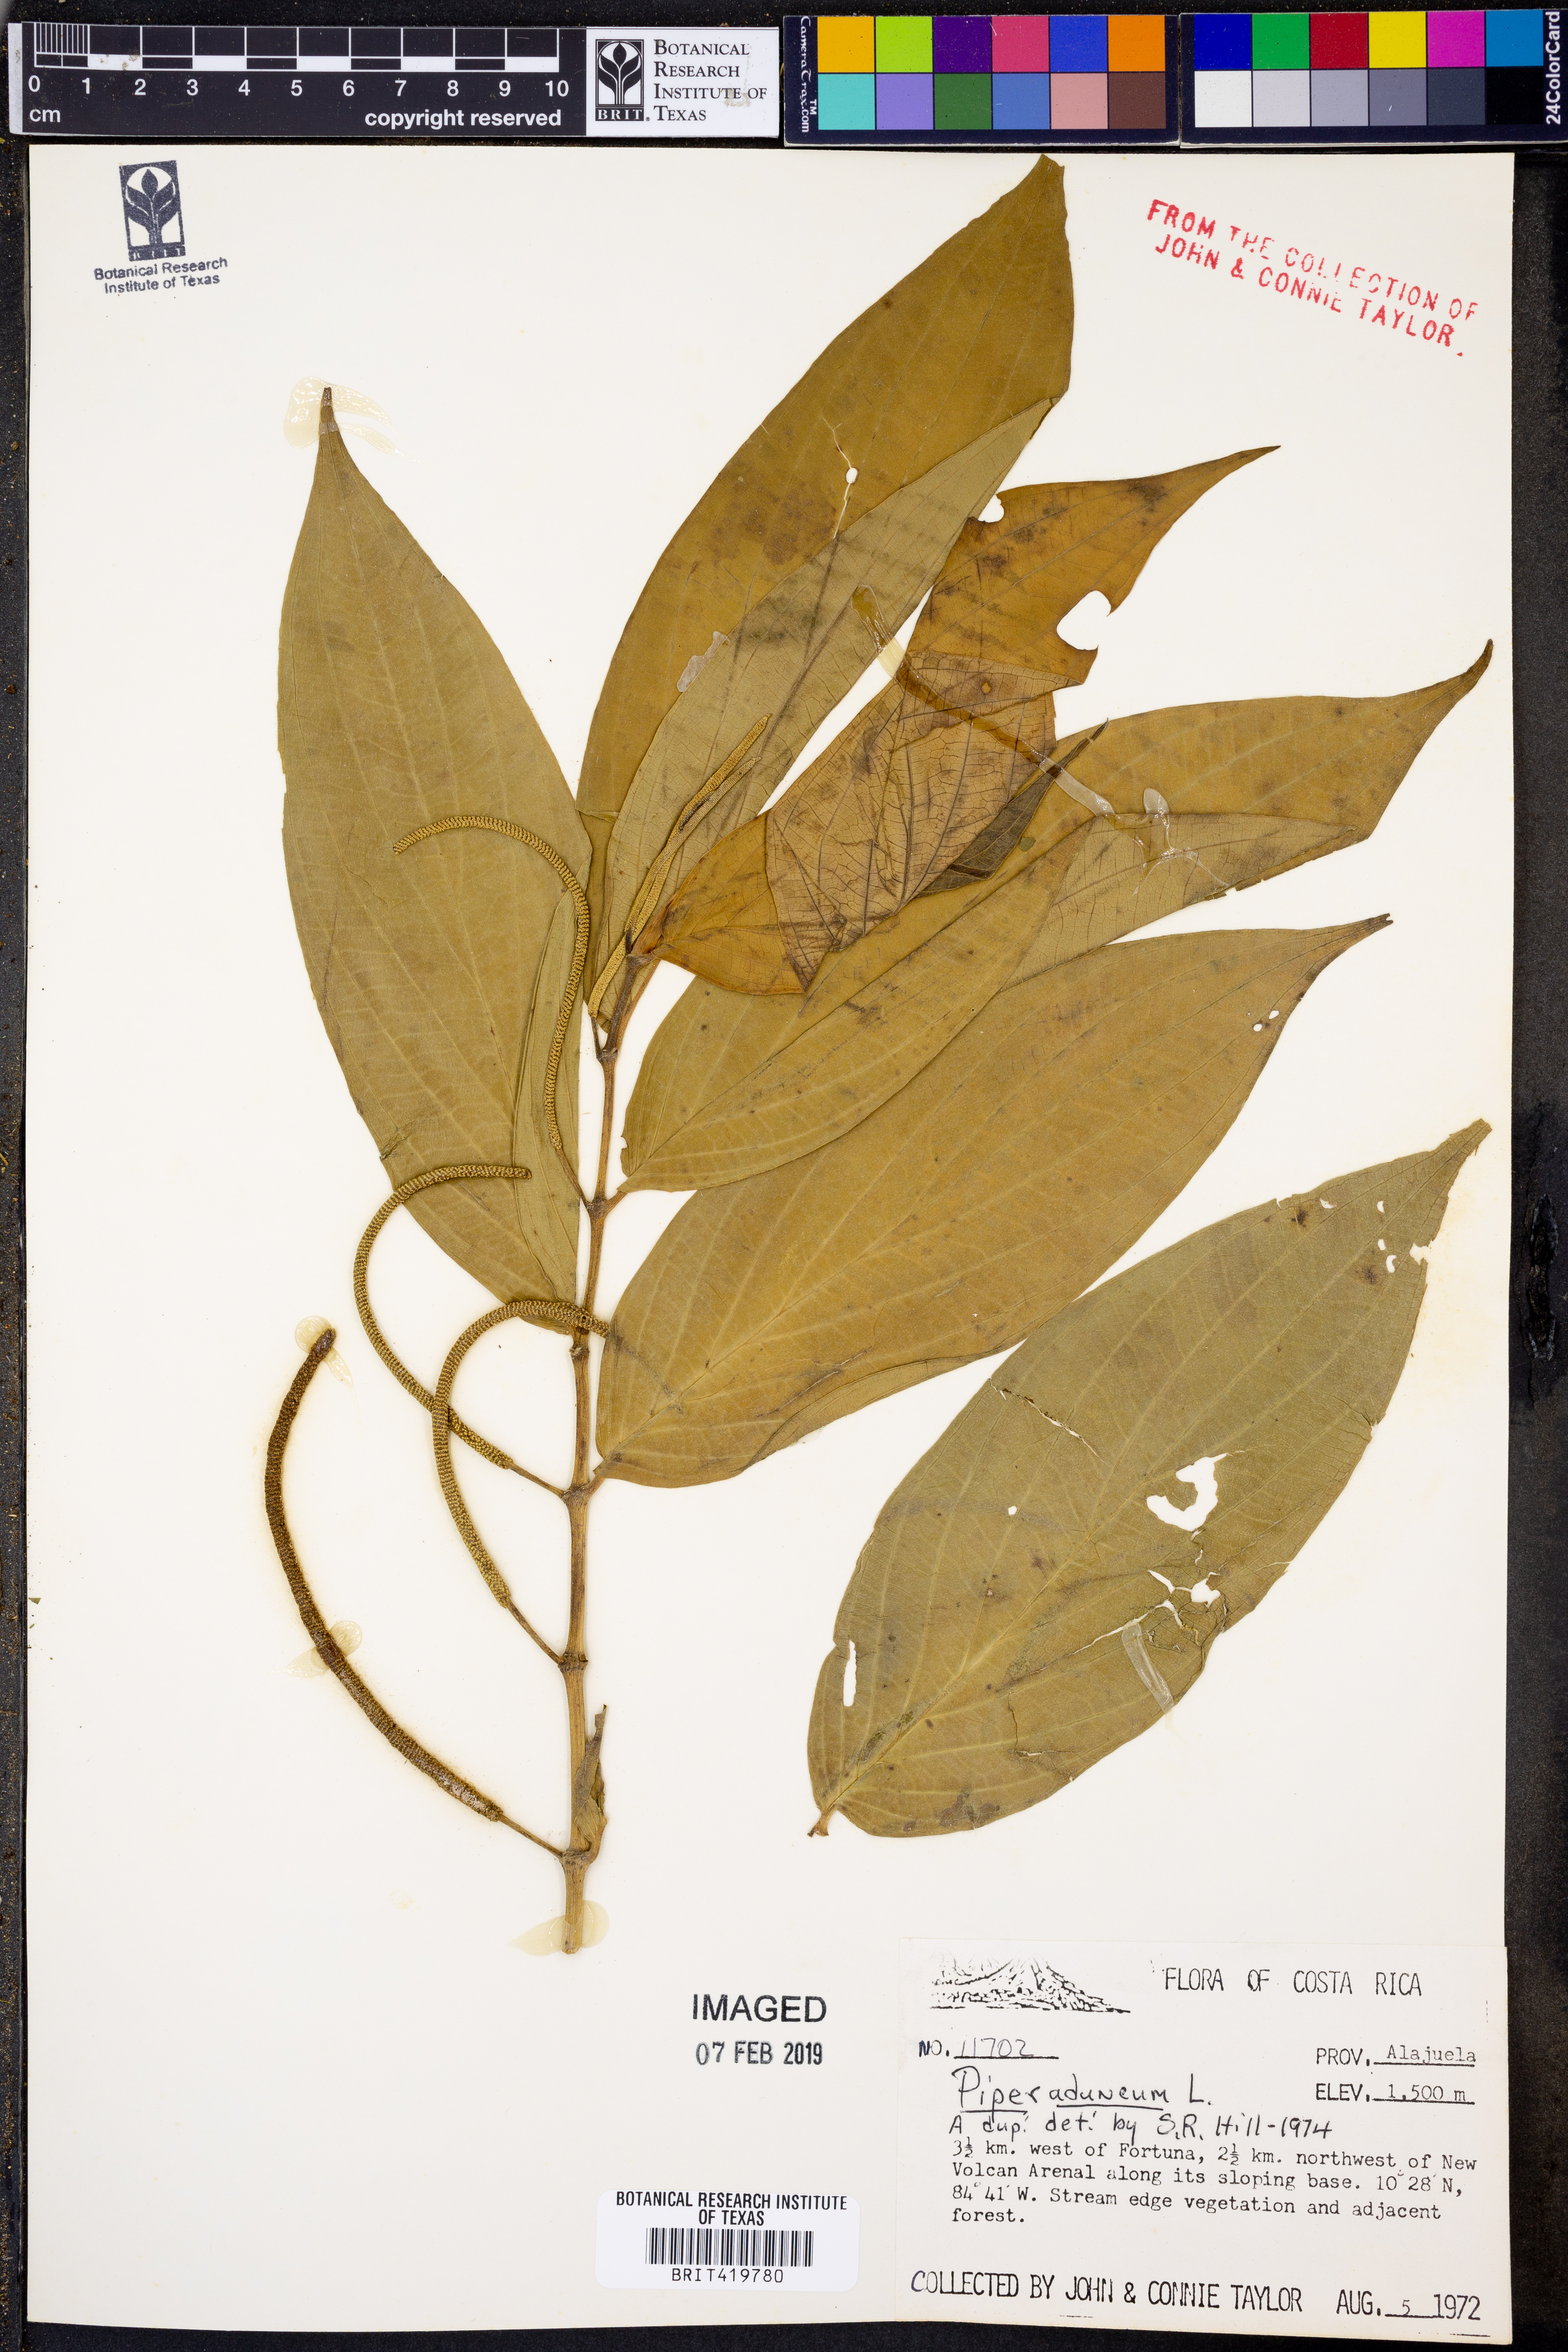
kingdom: Plantae
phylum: Tracheophyta
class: Magnoliopsida
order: Piperales
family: Piperaceae
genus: Piper
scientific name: Piper aduncum
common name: Spiked pepper
